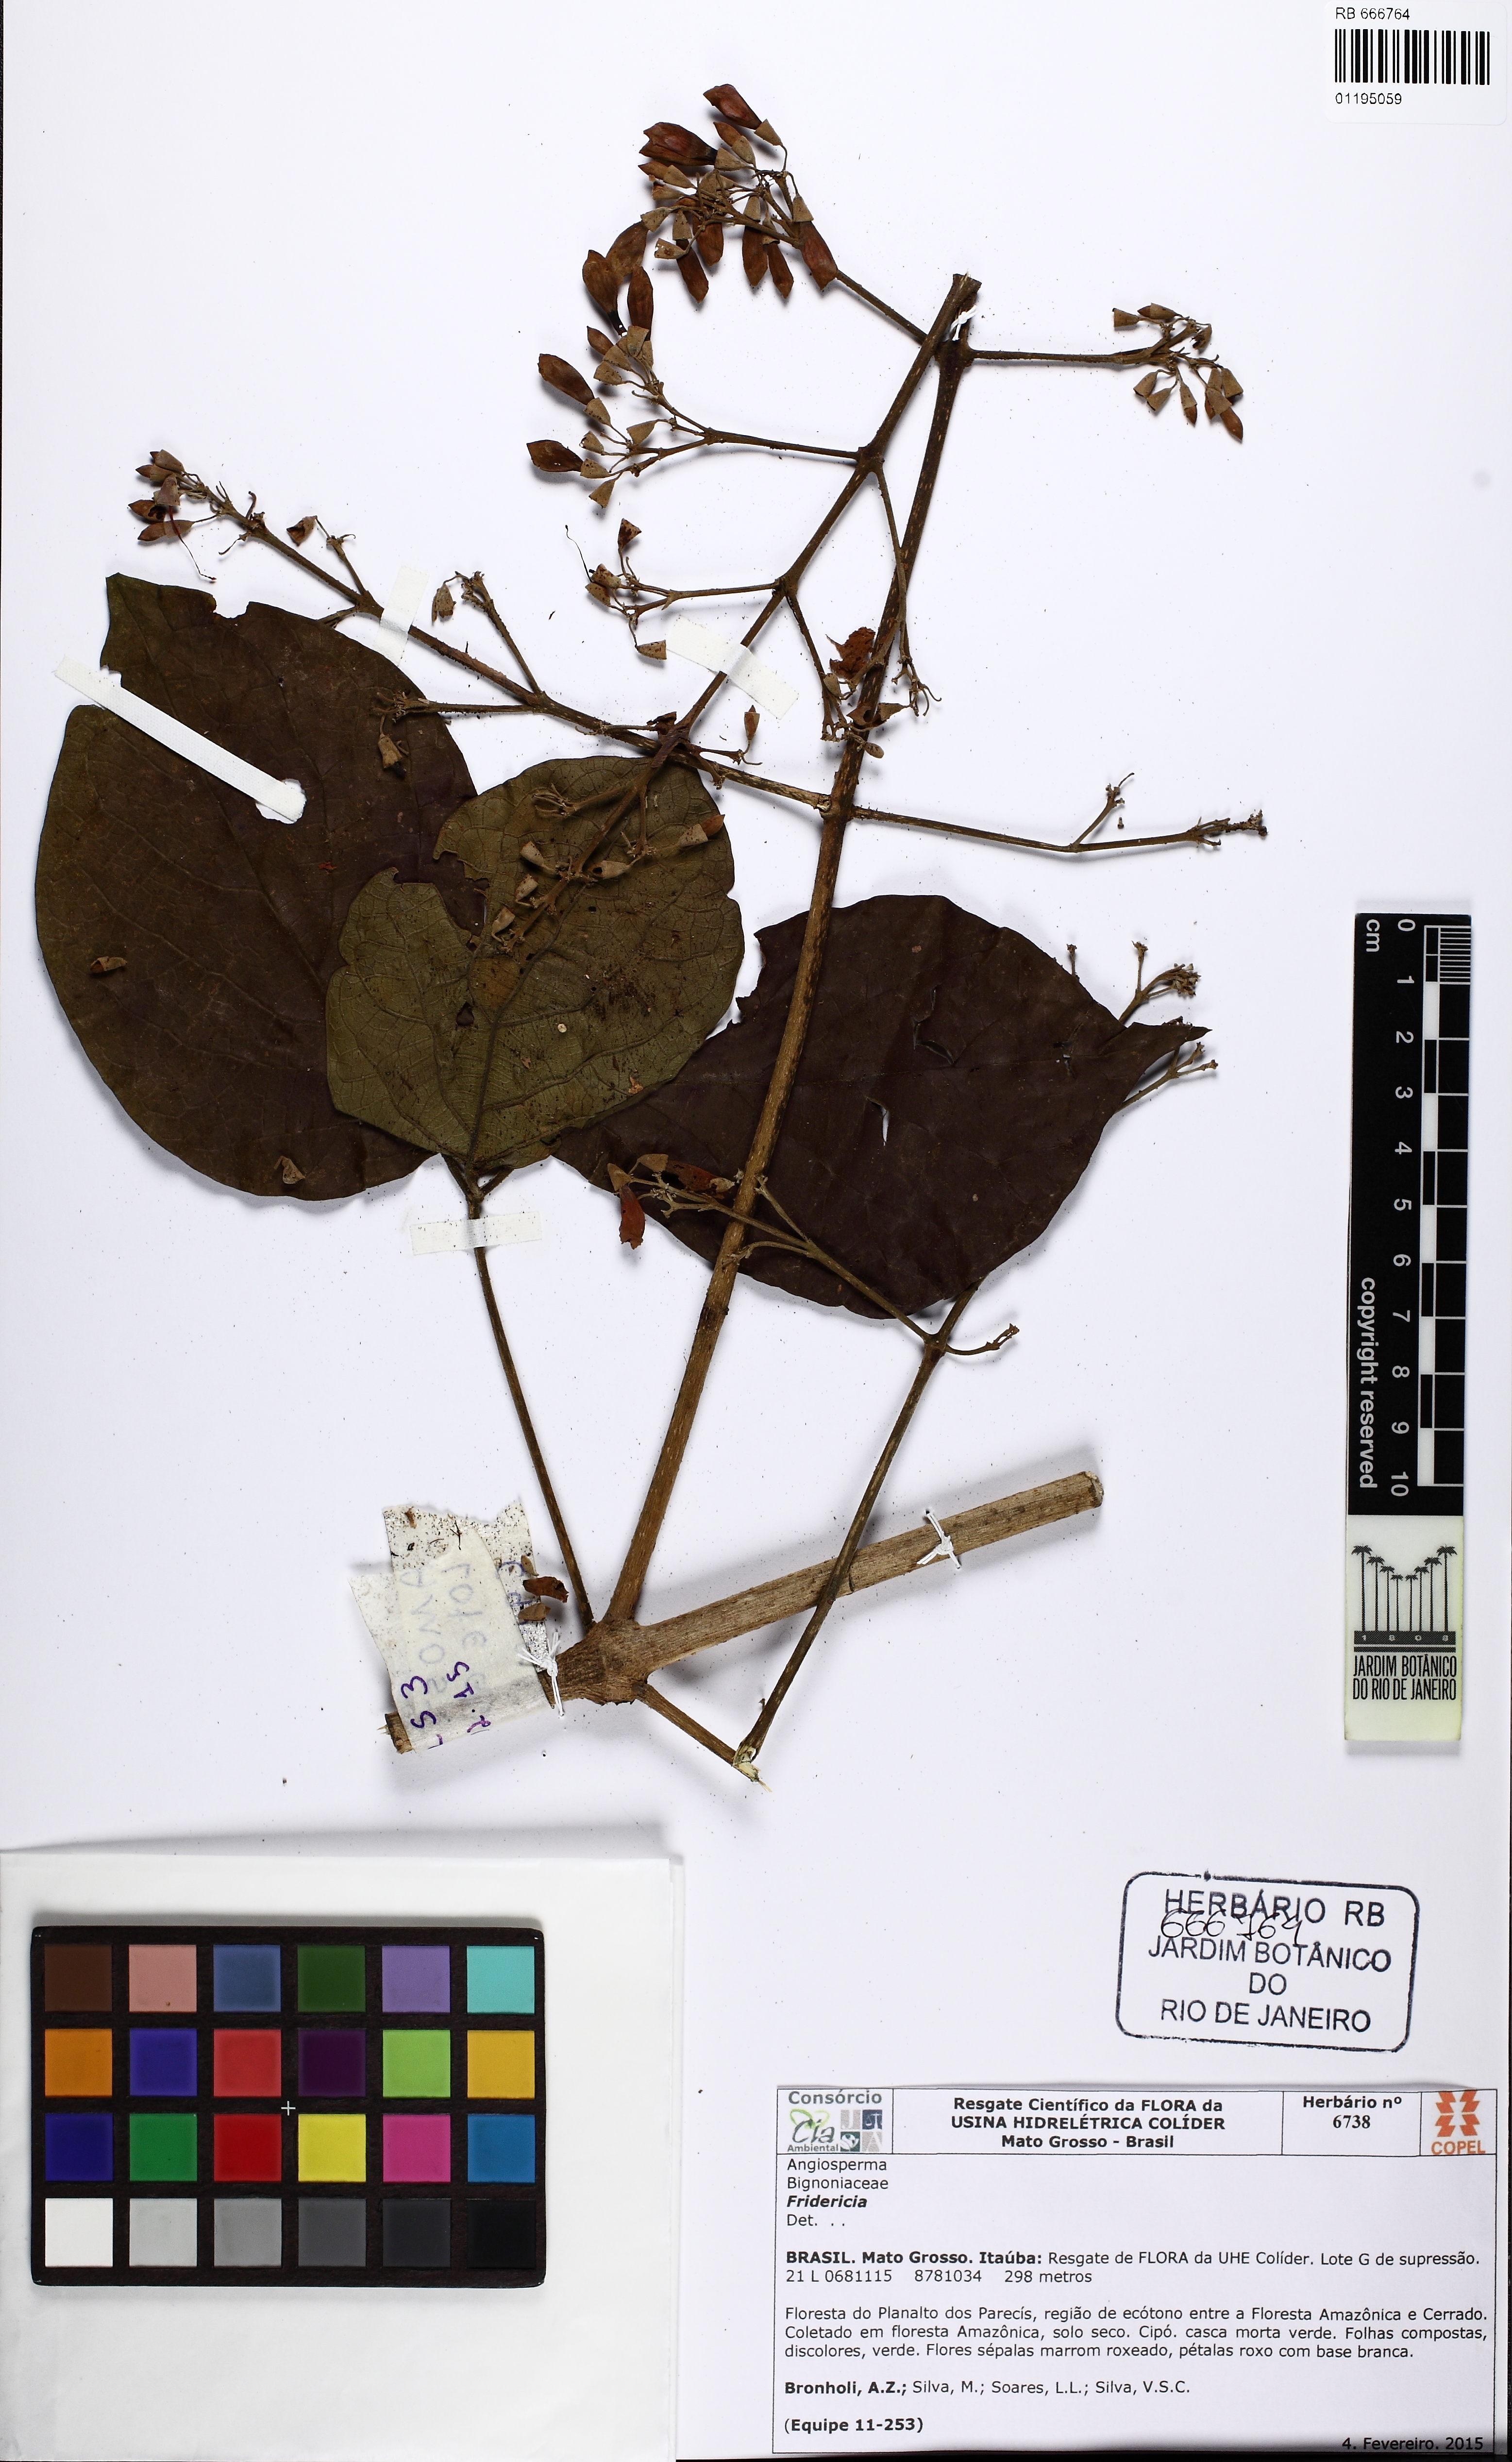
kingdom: Plantae
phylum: Tracheophyta
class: Magnoliopsida
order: Lamiales
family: Bignoniaceae
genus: Fridericia
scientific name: Fridericia
